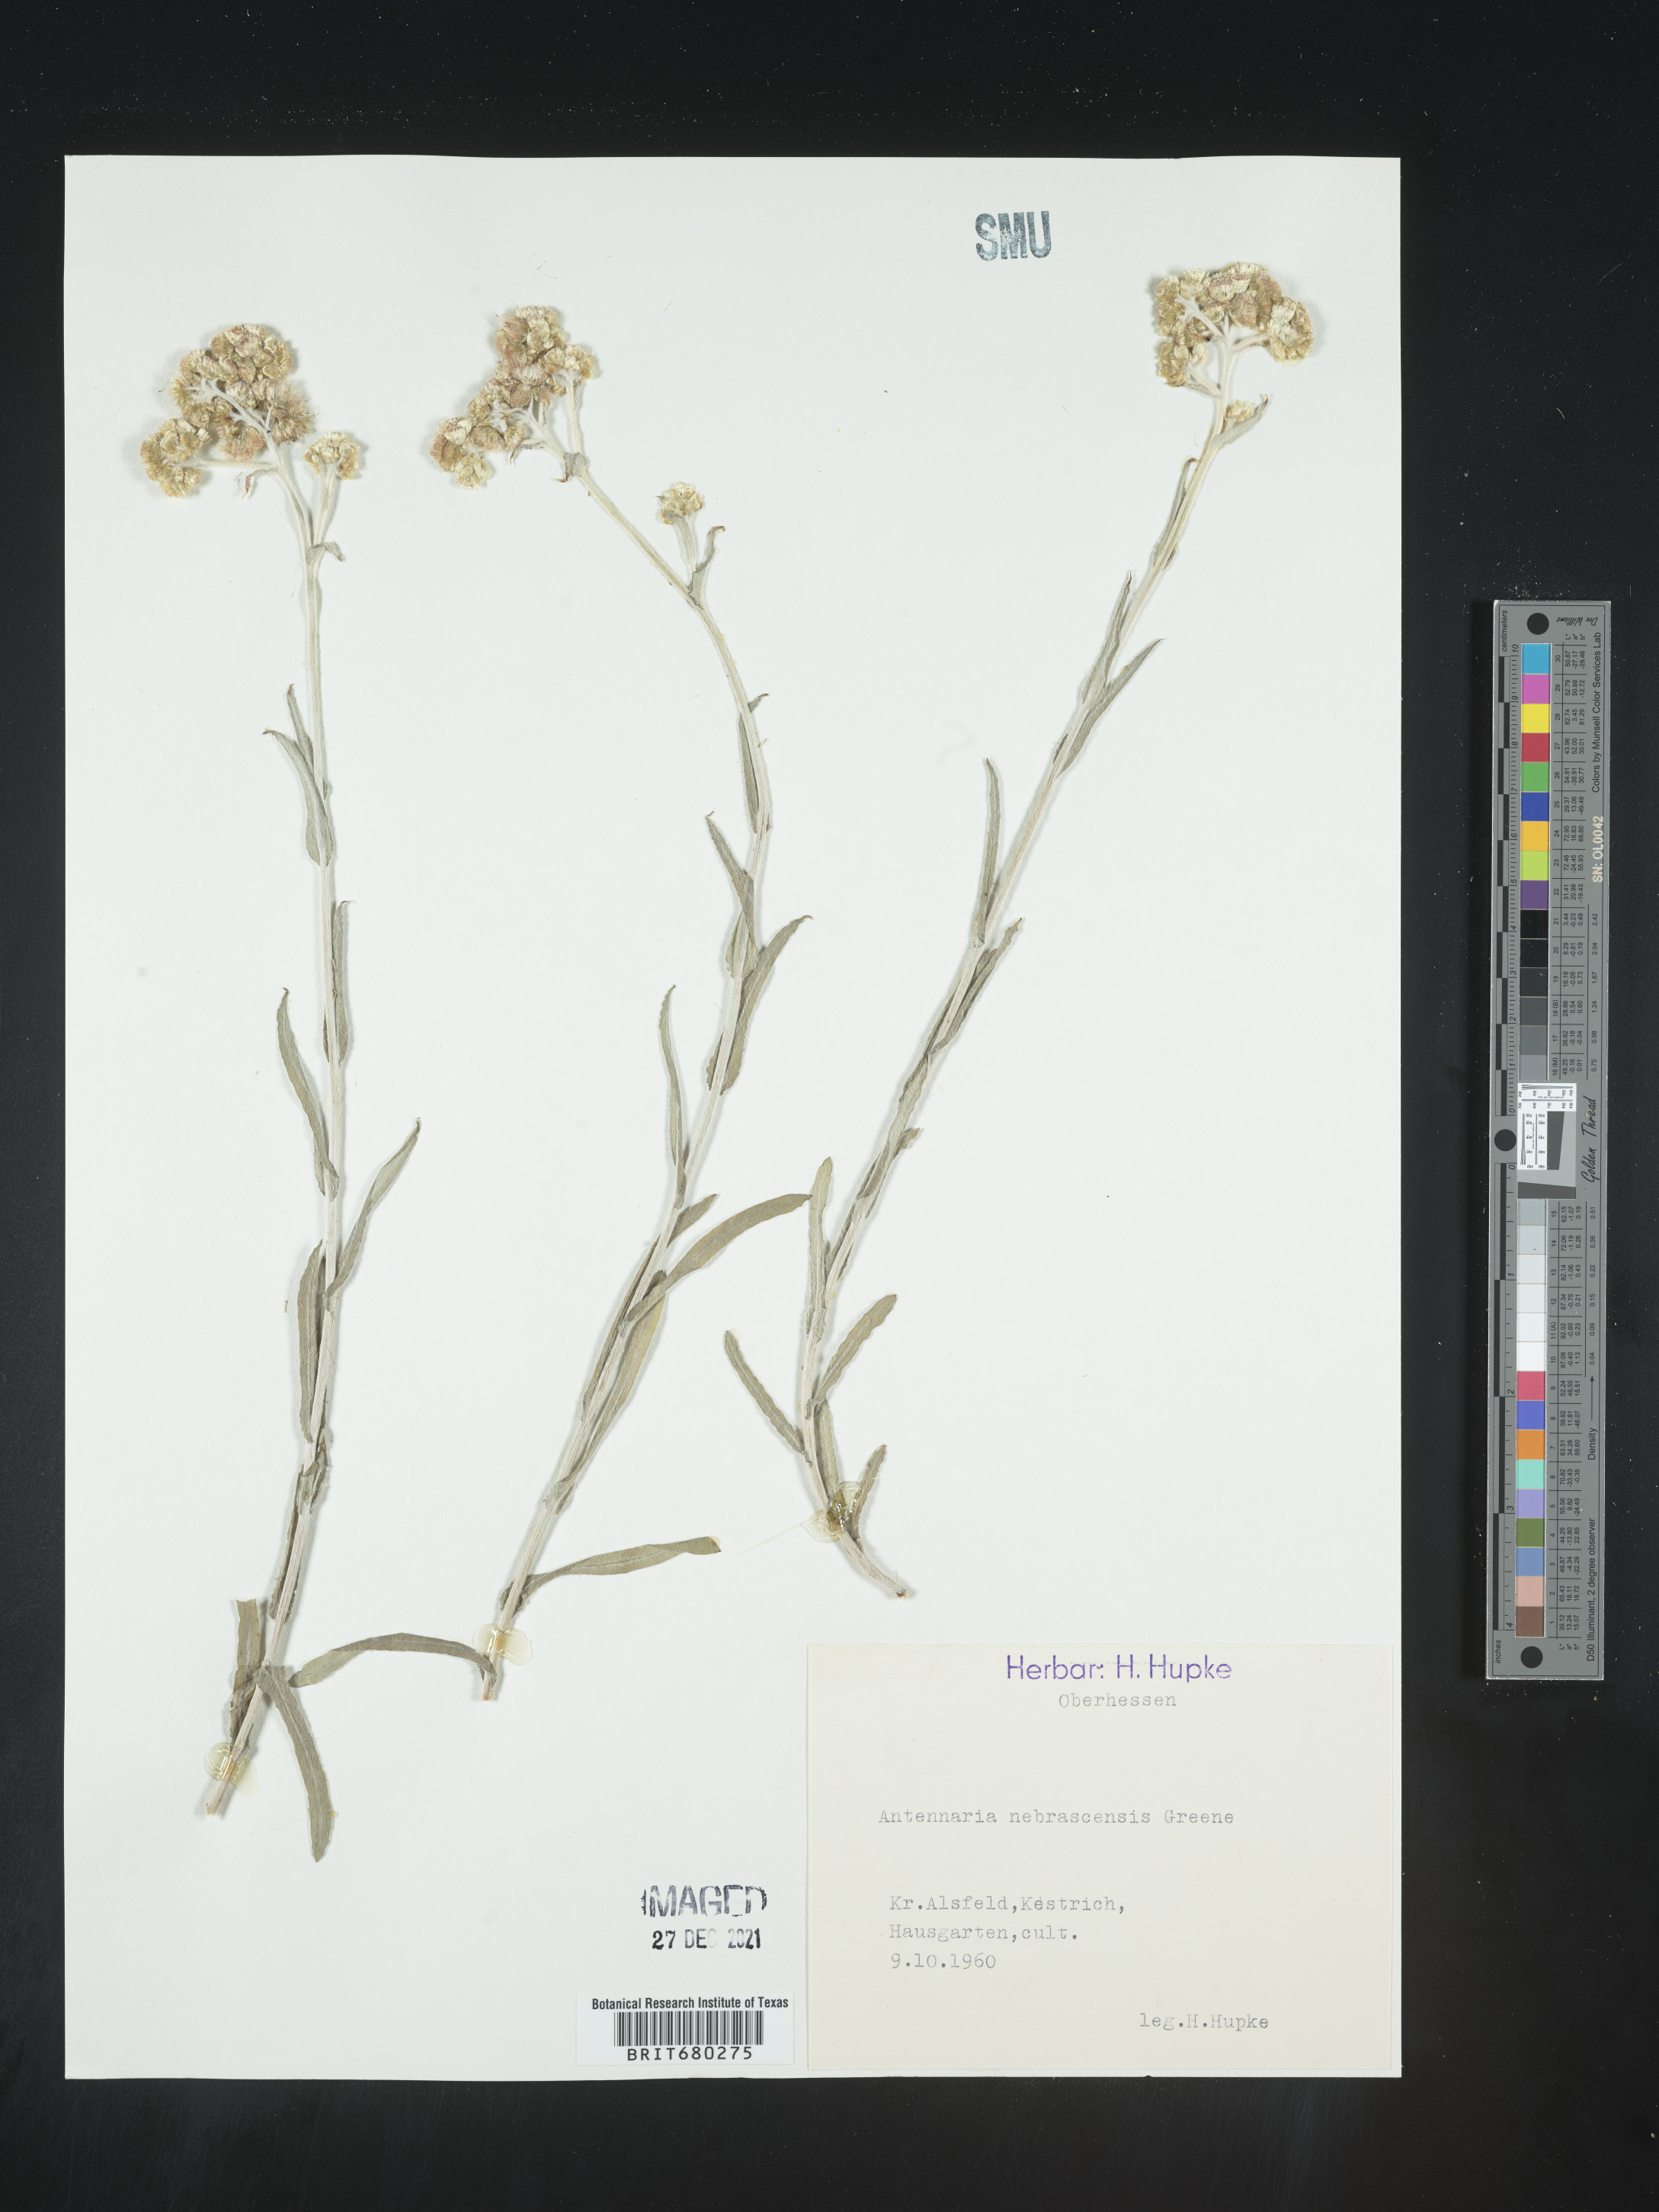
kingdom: Plantae
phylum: Tracheophyta
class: Magnoliopsida
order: Asterales
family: Asteraceae
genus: Antennaria
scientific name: Antennaria
